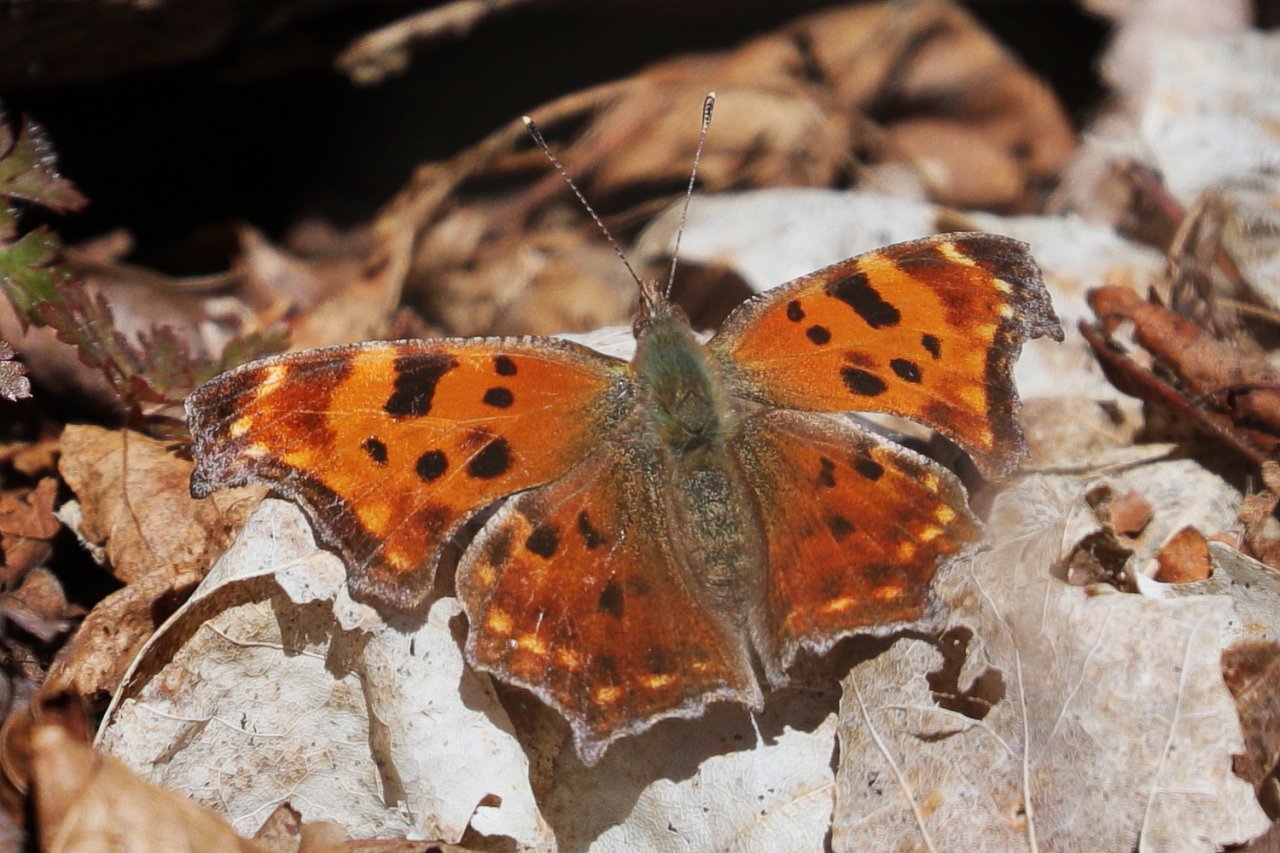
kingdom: Animalia
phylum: Arthropoda
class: Insecta
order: Lepidoptera
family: Nymphalidae
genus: Polygonia
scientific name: Polygonia comma
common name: Eastern Comma
